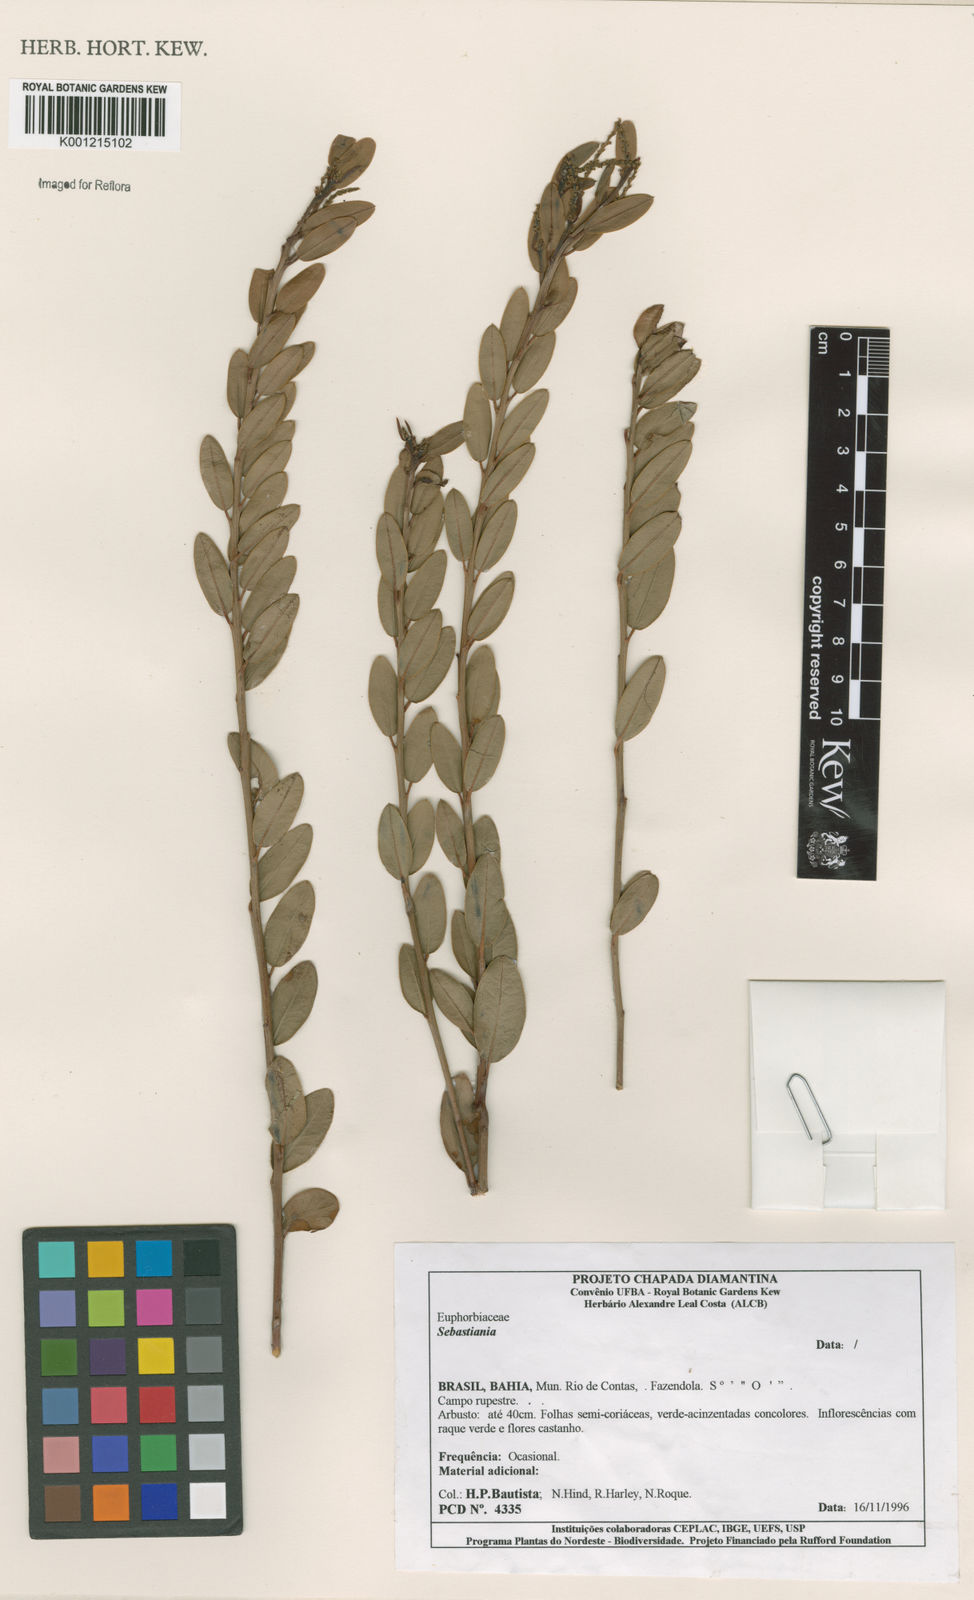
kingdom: Plantae
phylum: Tracheophyta
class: Magnoliopsida
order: Malpighiales
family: Euphorbiaceae
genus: Sebastiania
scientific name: Sebastiania
